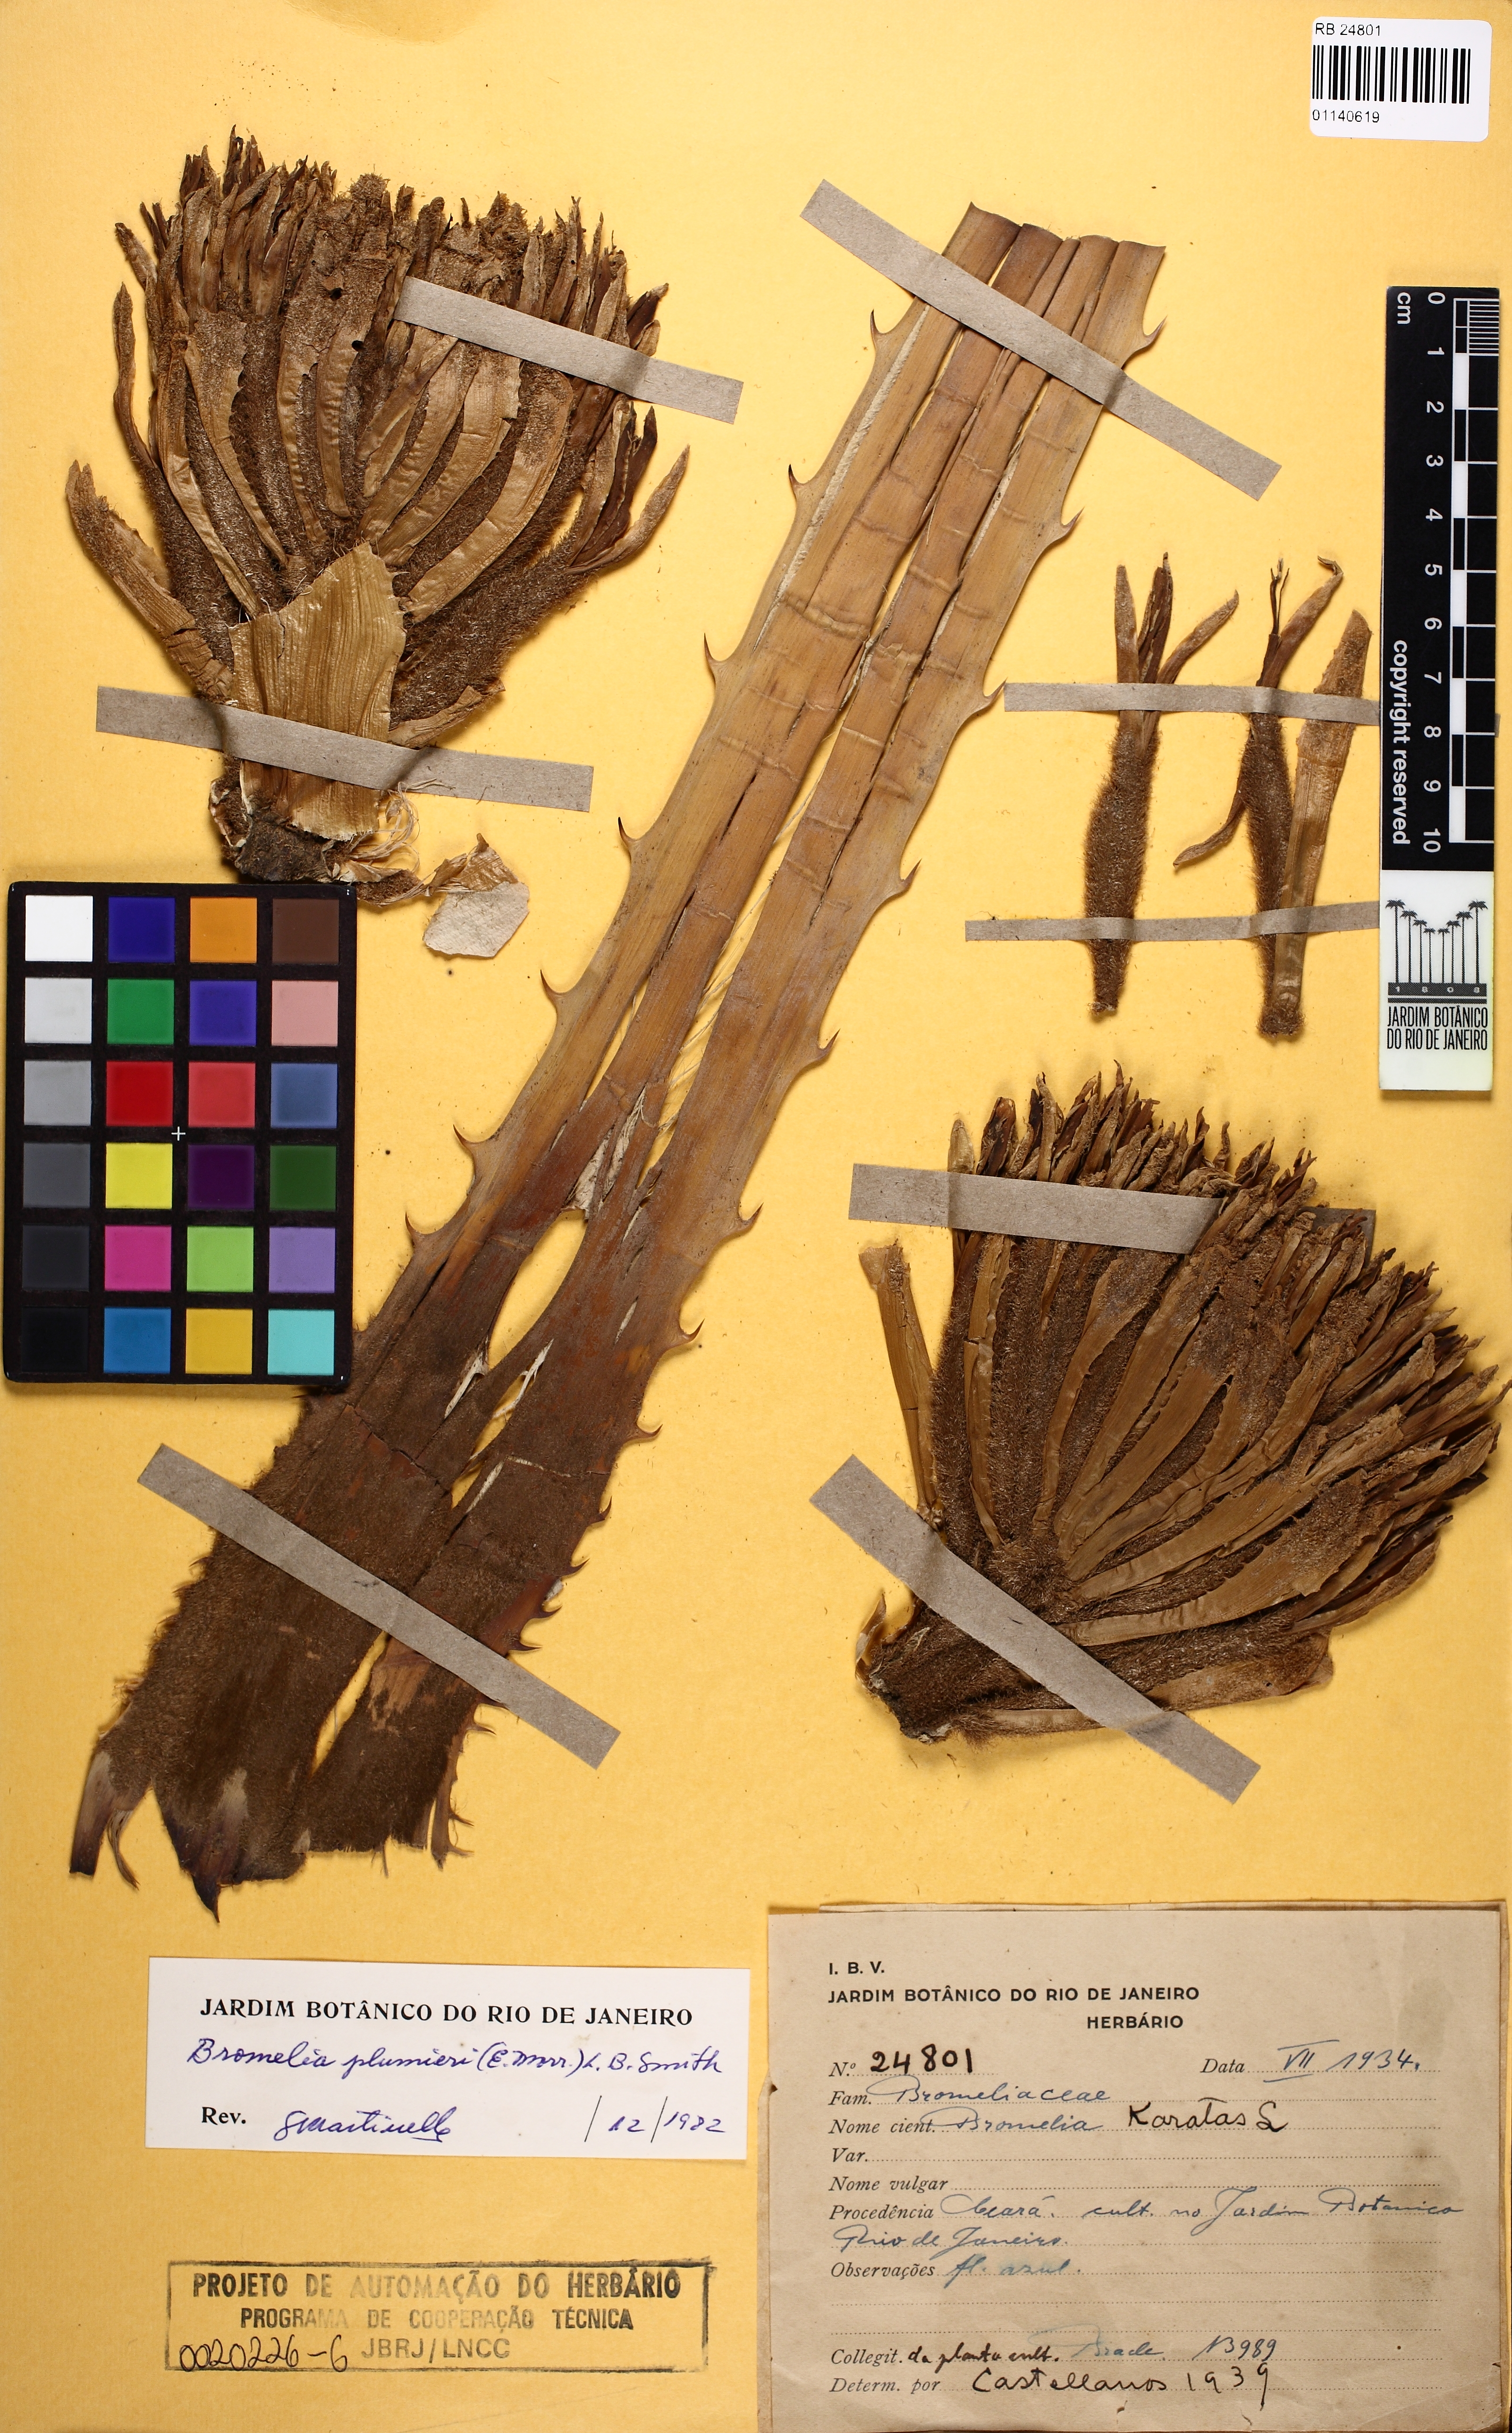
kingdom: Plantae
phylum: Tracheophyta
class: Liliopsida
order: Poales
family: Bromeliaceae
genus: Bromelia
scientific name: Bromelia karatas
